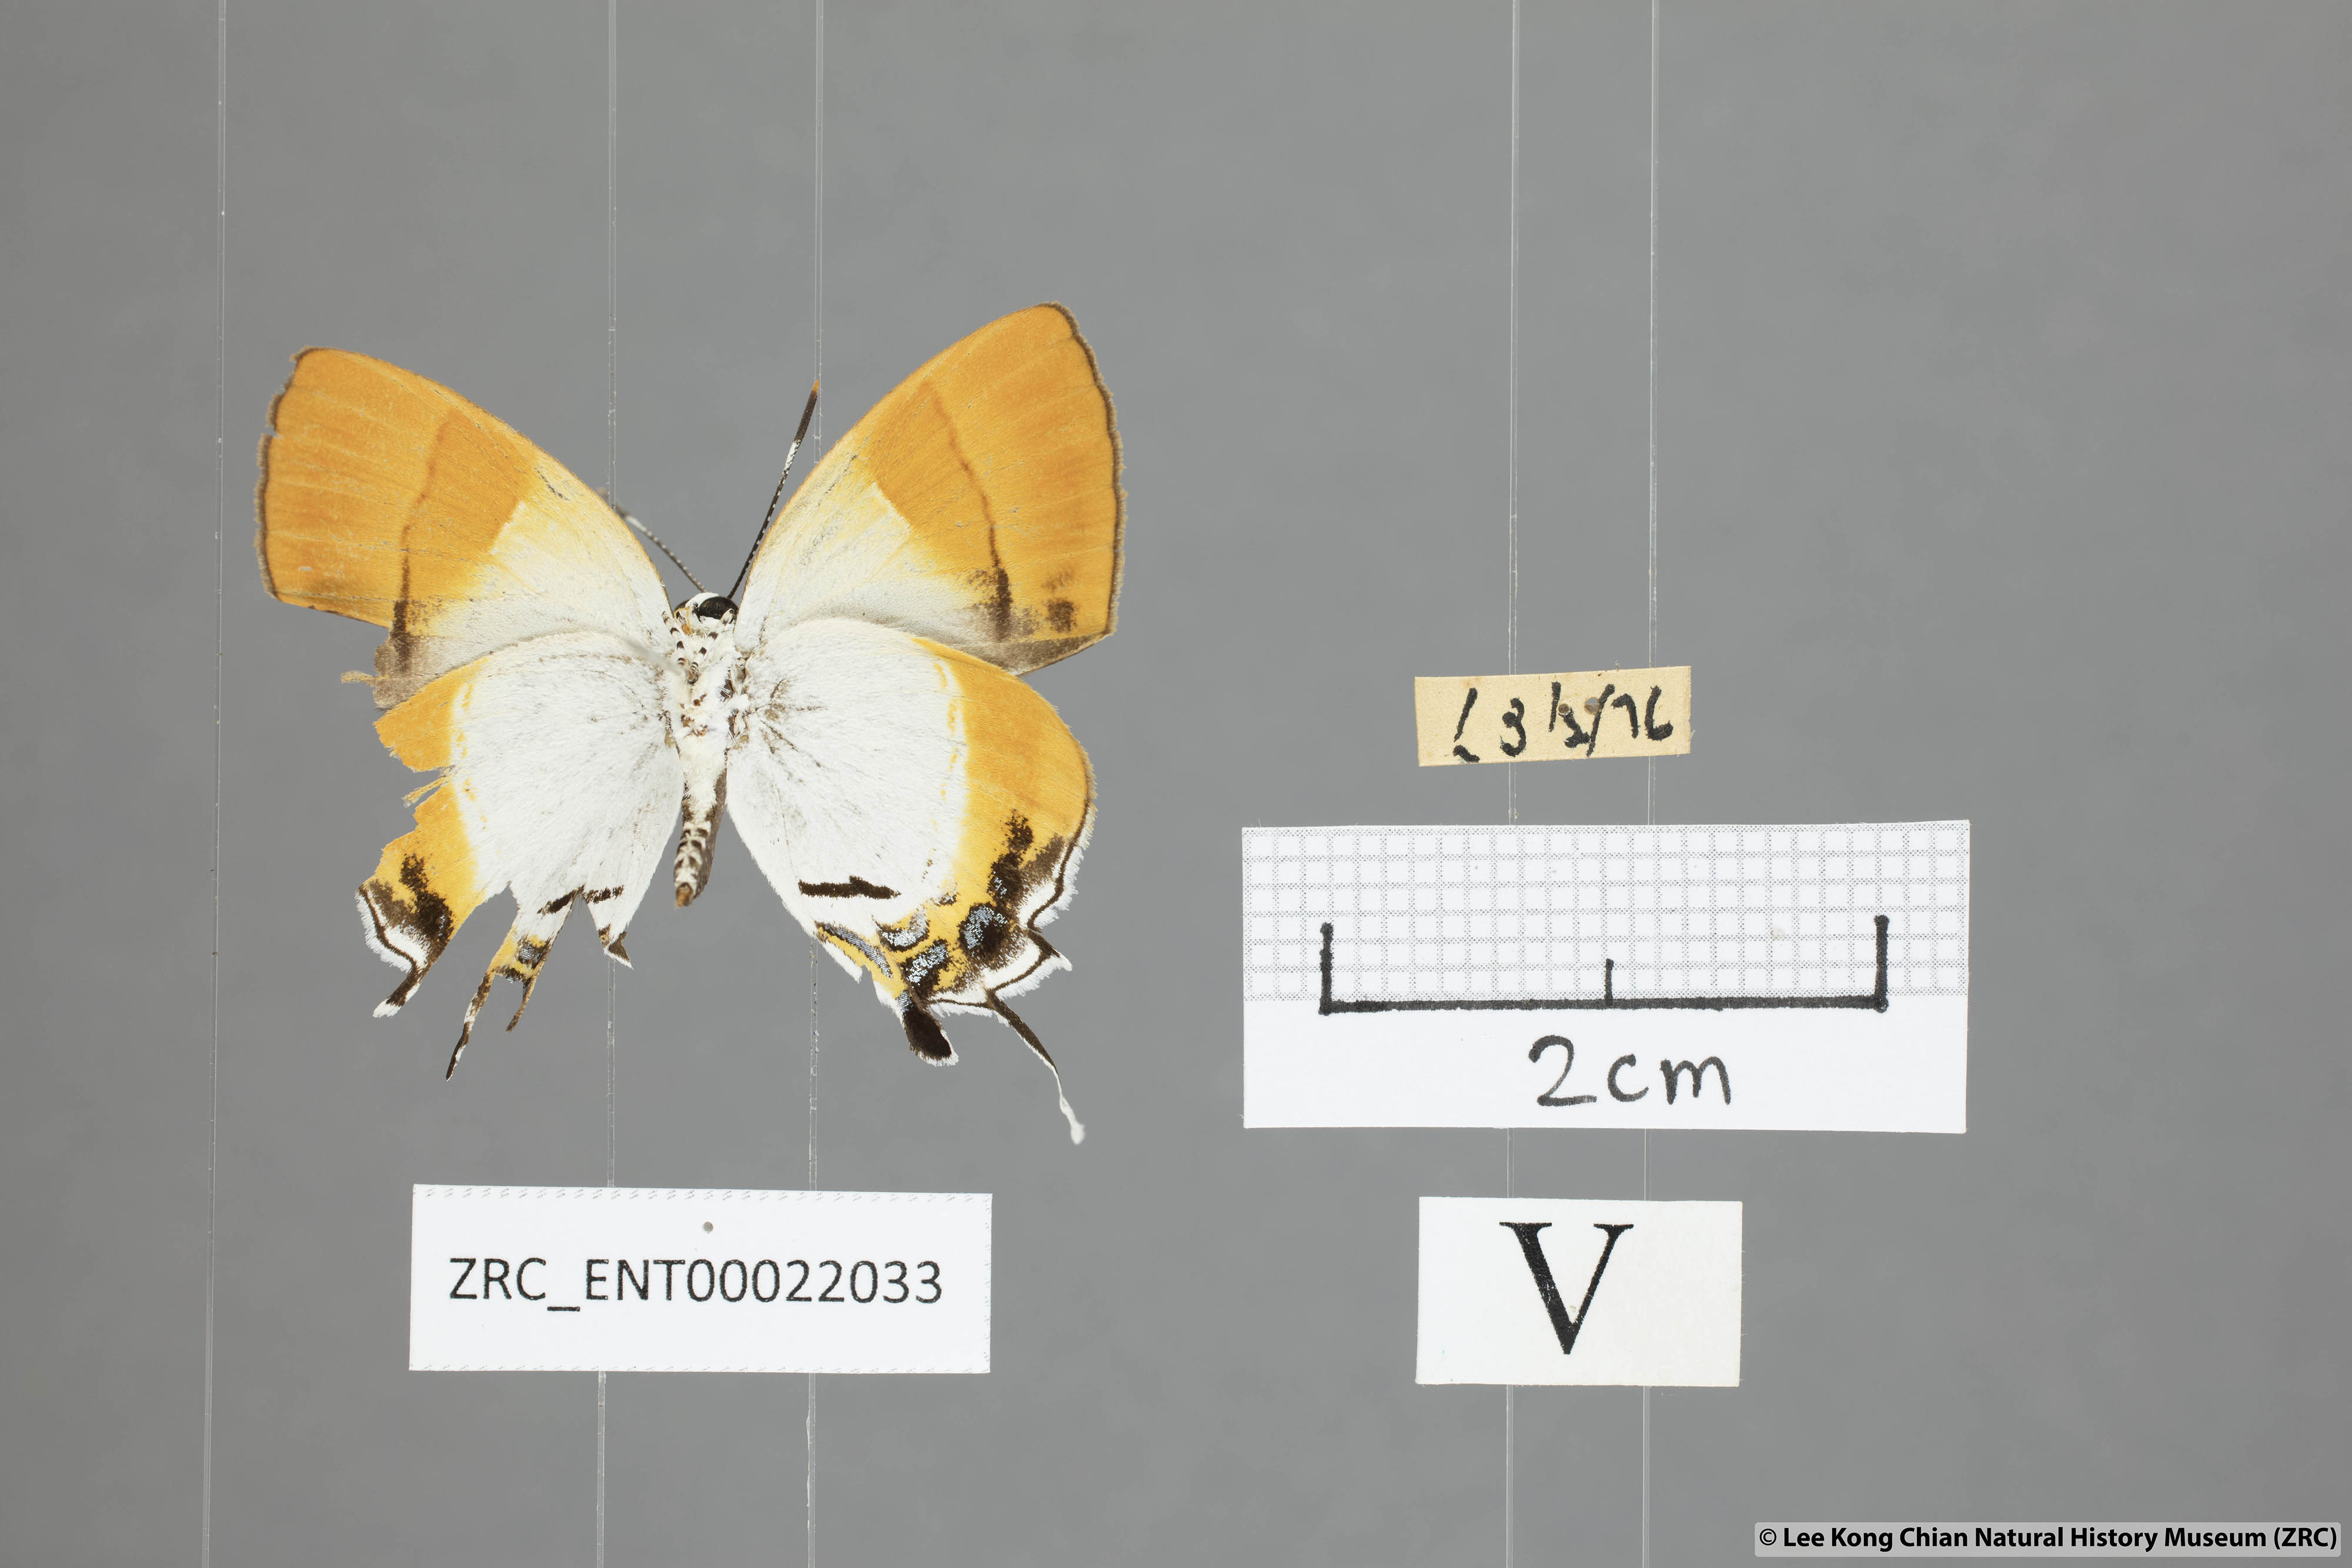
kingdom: Animalia
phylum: Arthropoda
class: Insecta
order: Lepidoptera
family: Lycaenidae
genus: Sithon
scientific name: Sithon nedymond
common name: Plush
